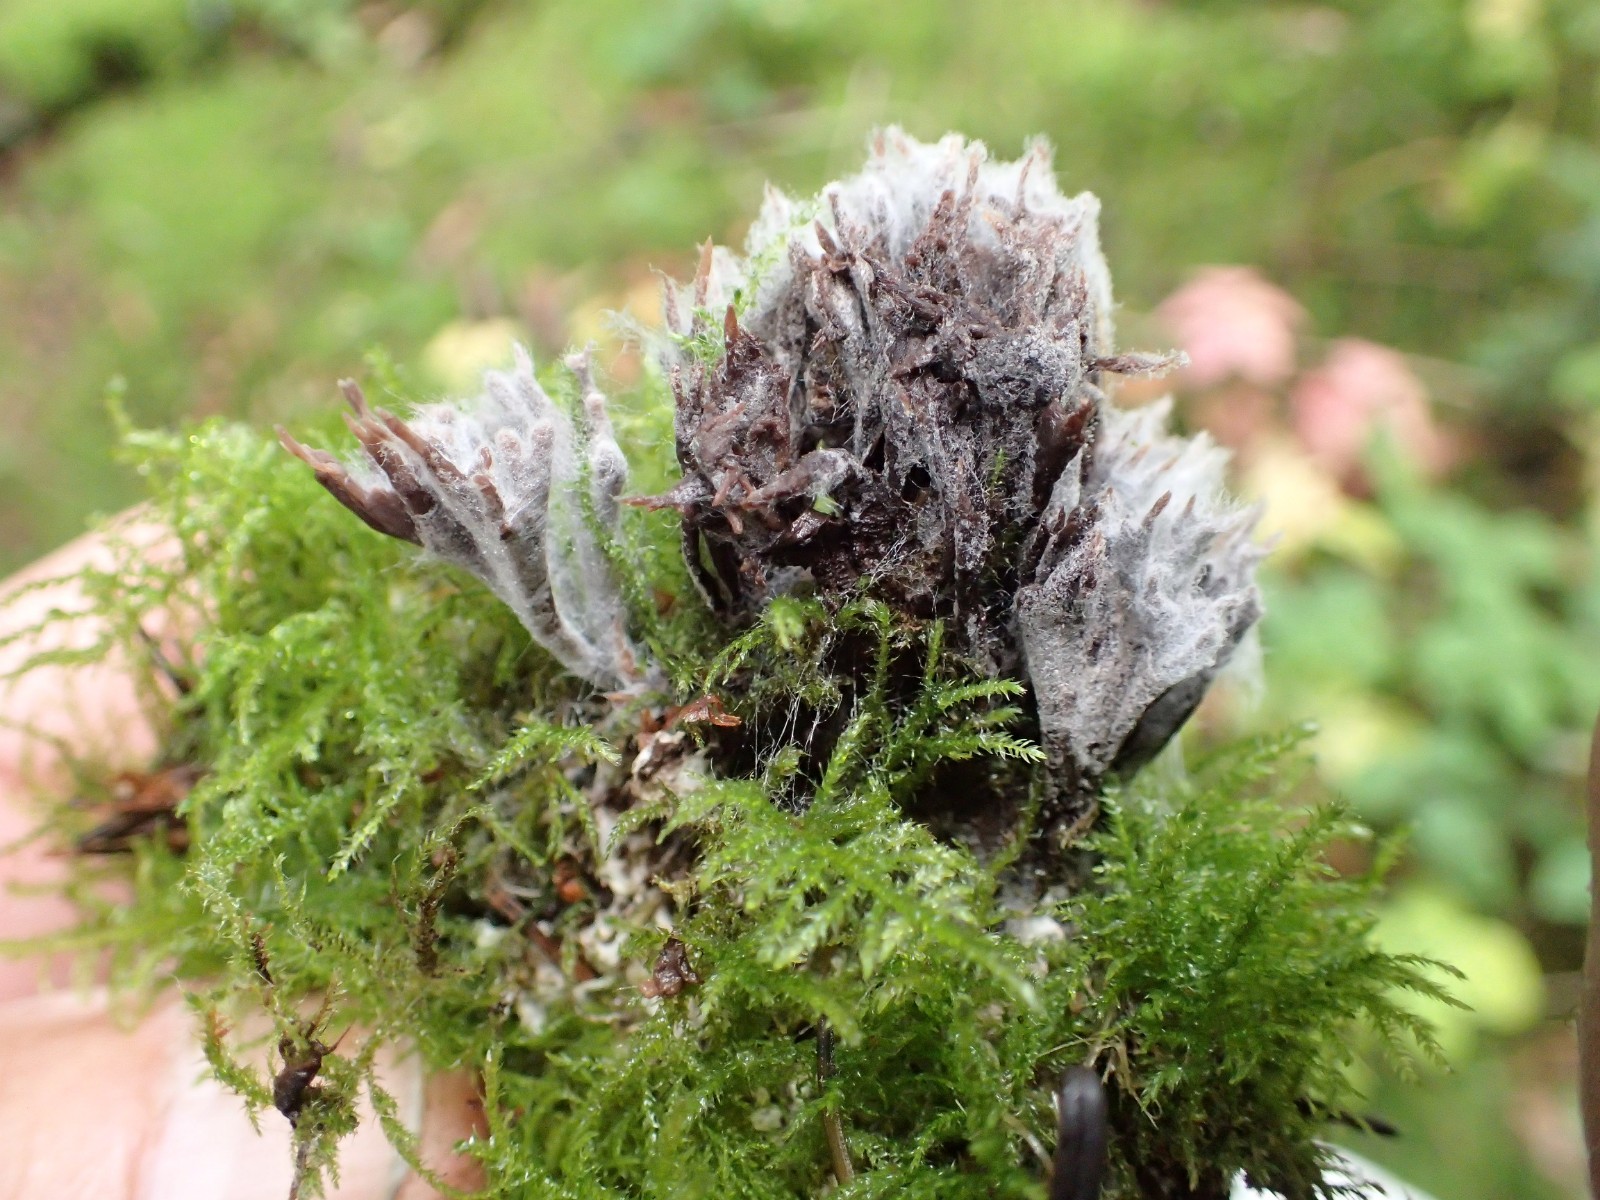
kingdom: Fungi
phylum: Basidiomycota
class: Agaricomycetes
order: Thelephorales
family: Thelephoraceae
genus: Thelephora
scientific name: Thelephora palmata
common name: grenet frynsesvamp
